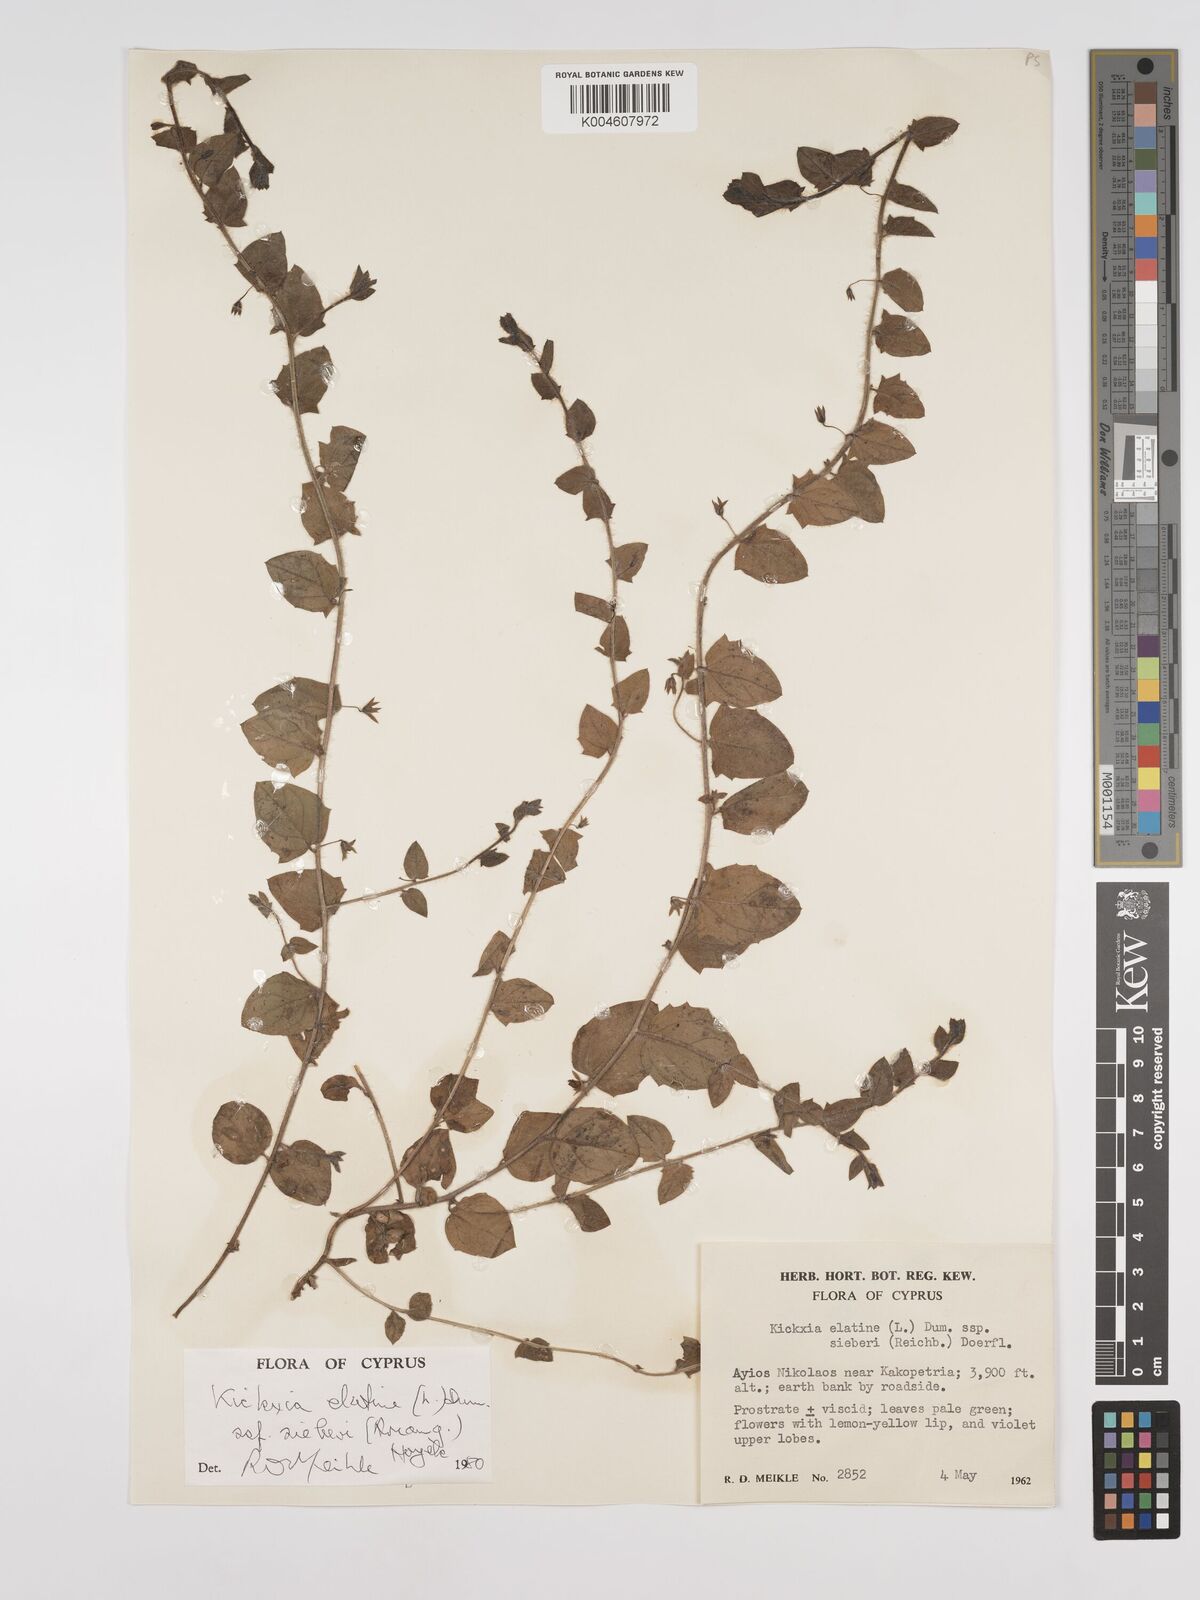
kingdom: Plantae
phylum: Tracheophyta
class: Magnoliopsida
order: Lamiales
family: Plantaginaceae
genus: Kickxia
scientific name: Kickxia
